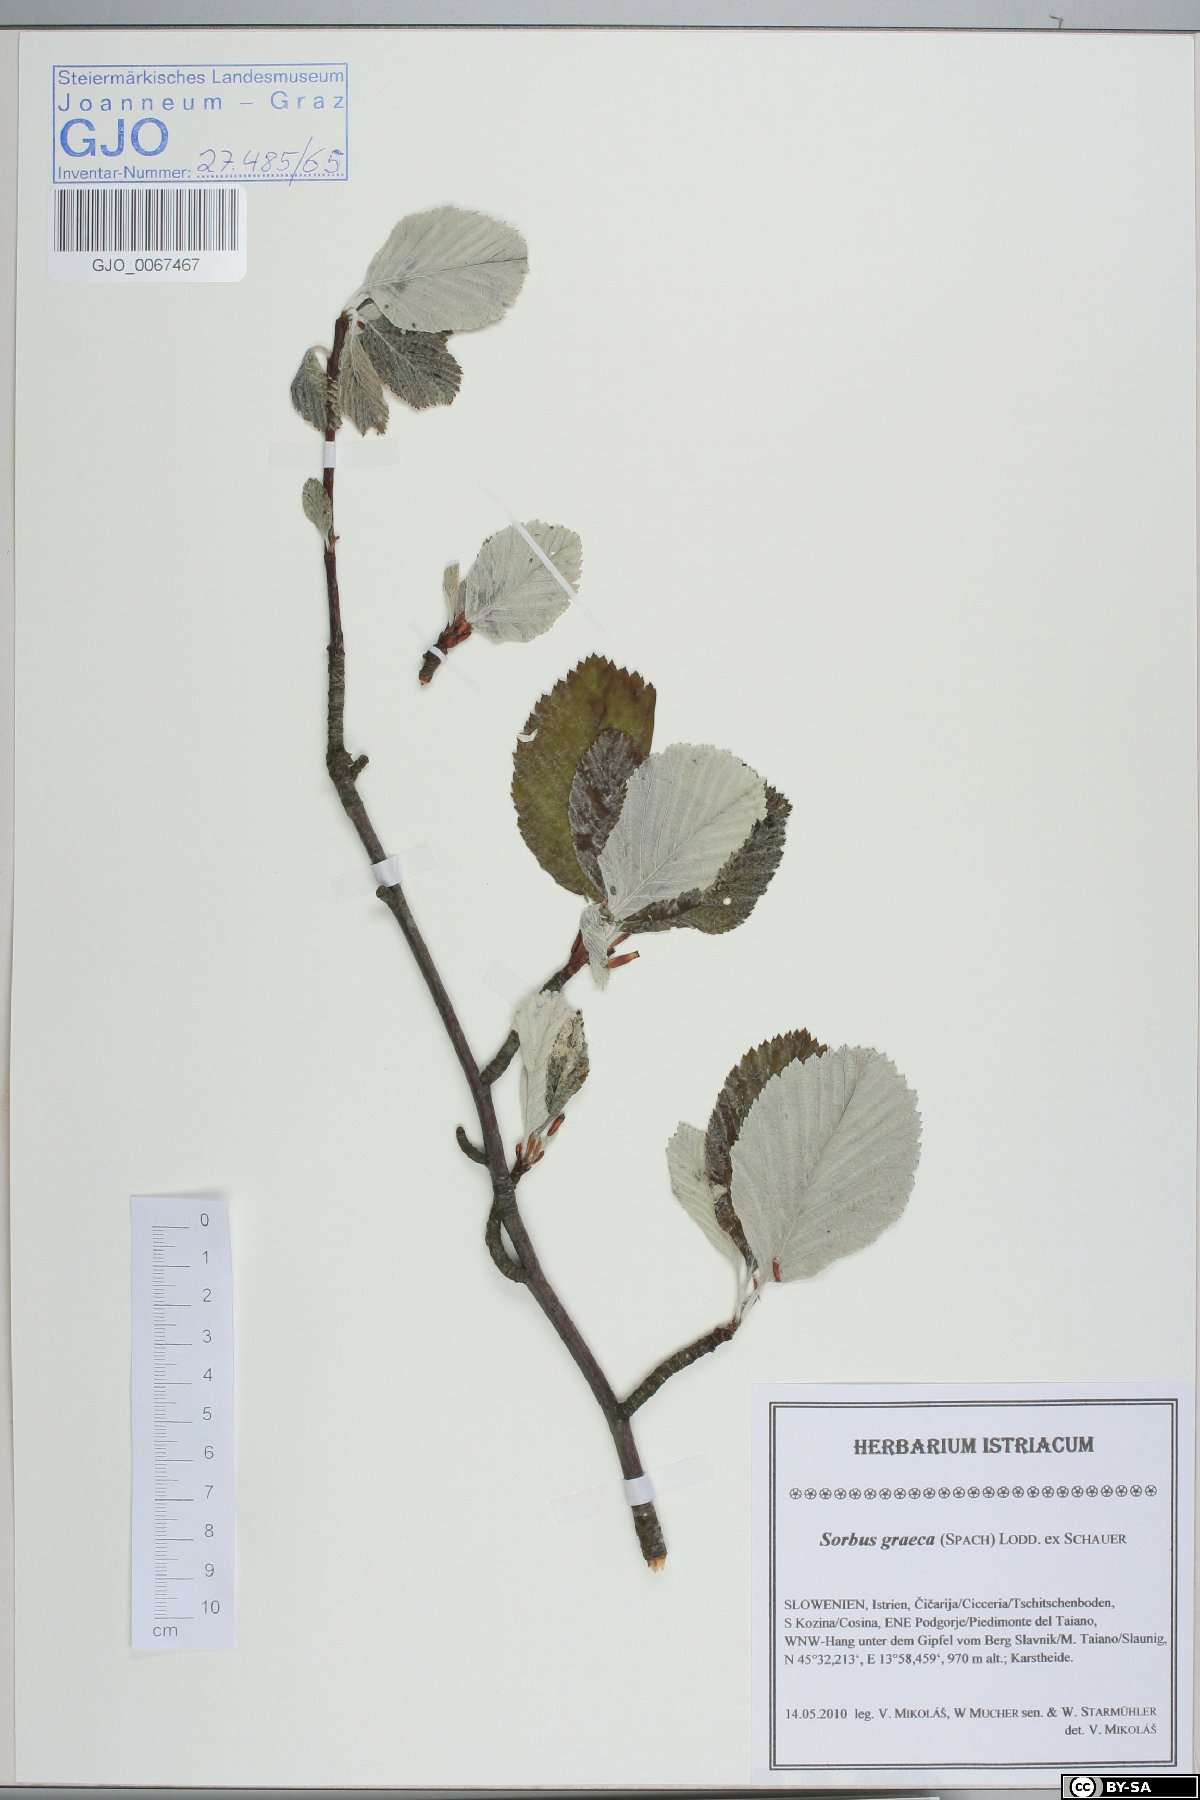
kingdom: Plantae
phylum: Tracheophyta
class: Magnoliopsida
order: Rosales
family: Rosaceae
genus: Aria
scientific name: Aria graeca
